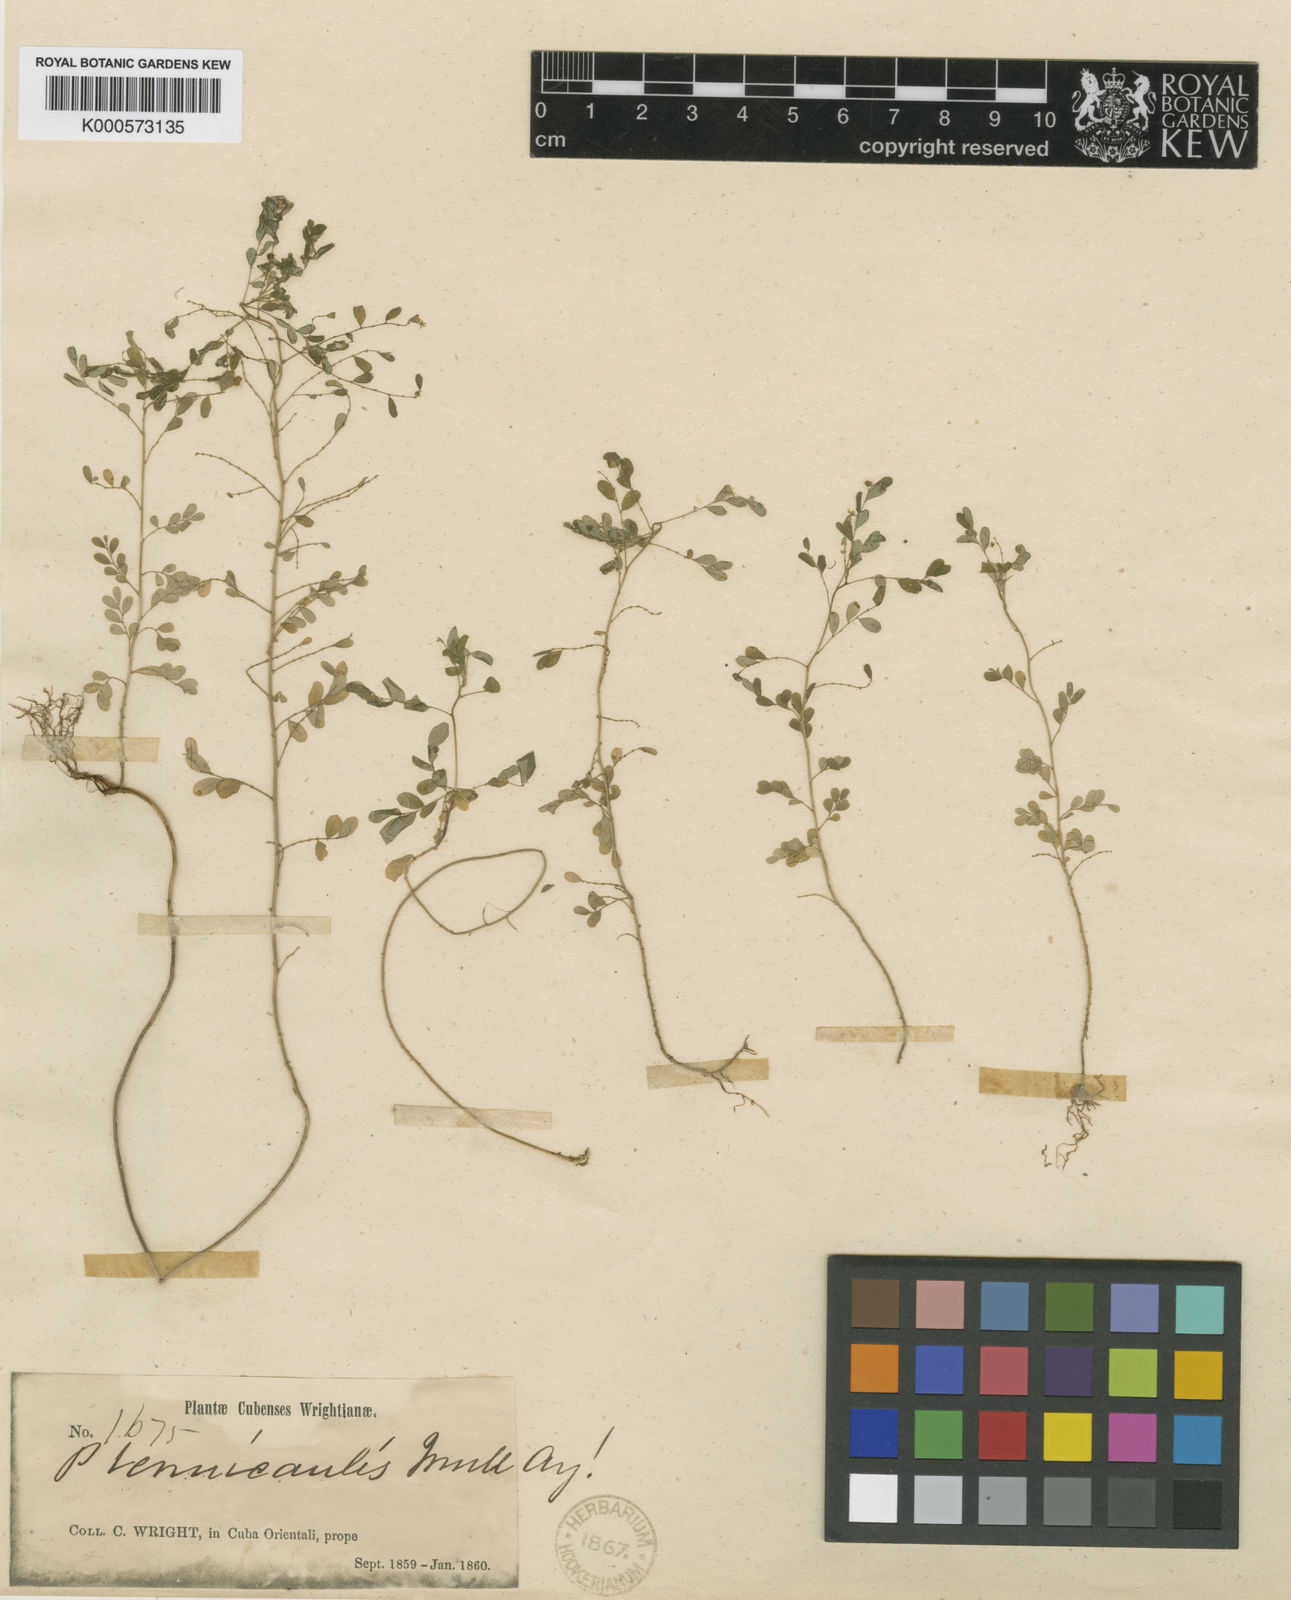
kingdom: Plantae
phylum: Tracheophyta
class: Magnoliopsida
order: Malpighiales
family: Phyllanthaceae
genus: Phyllanthus
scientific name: Phyllanthus
